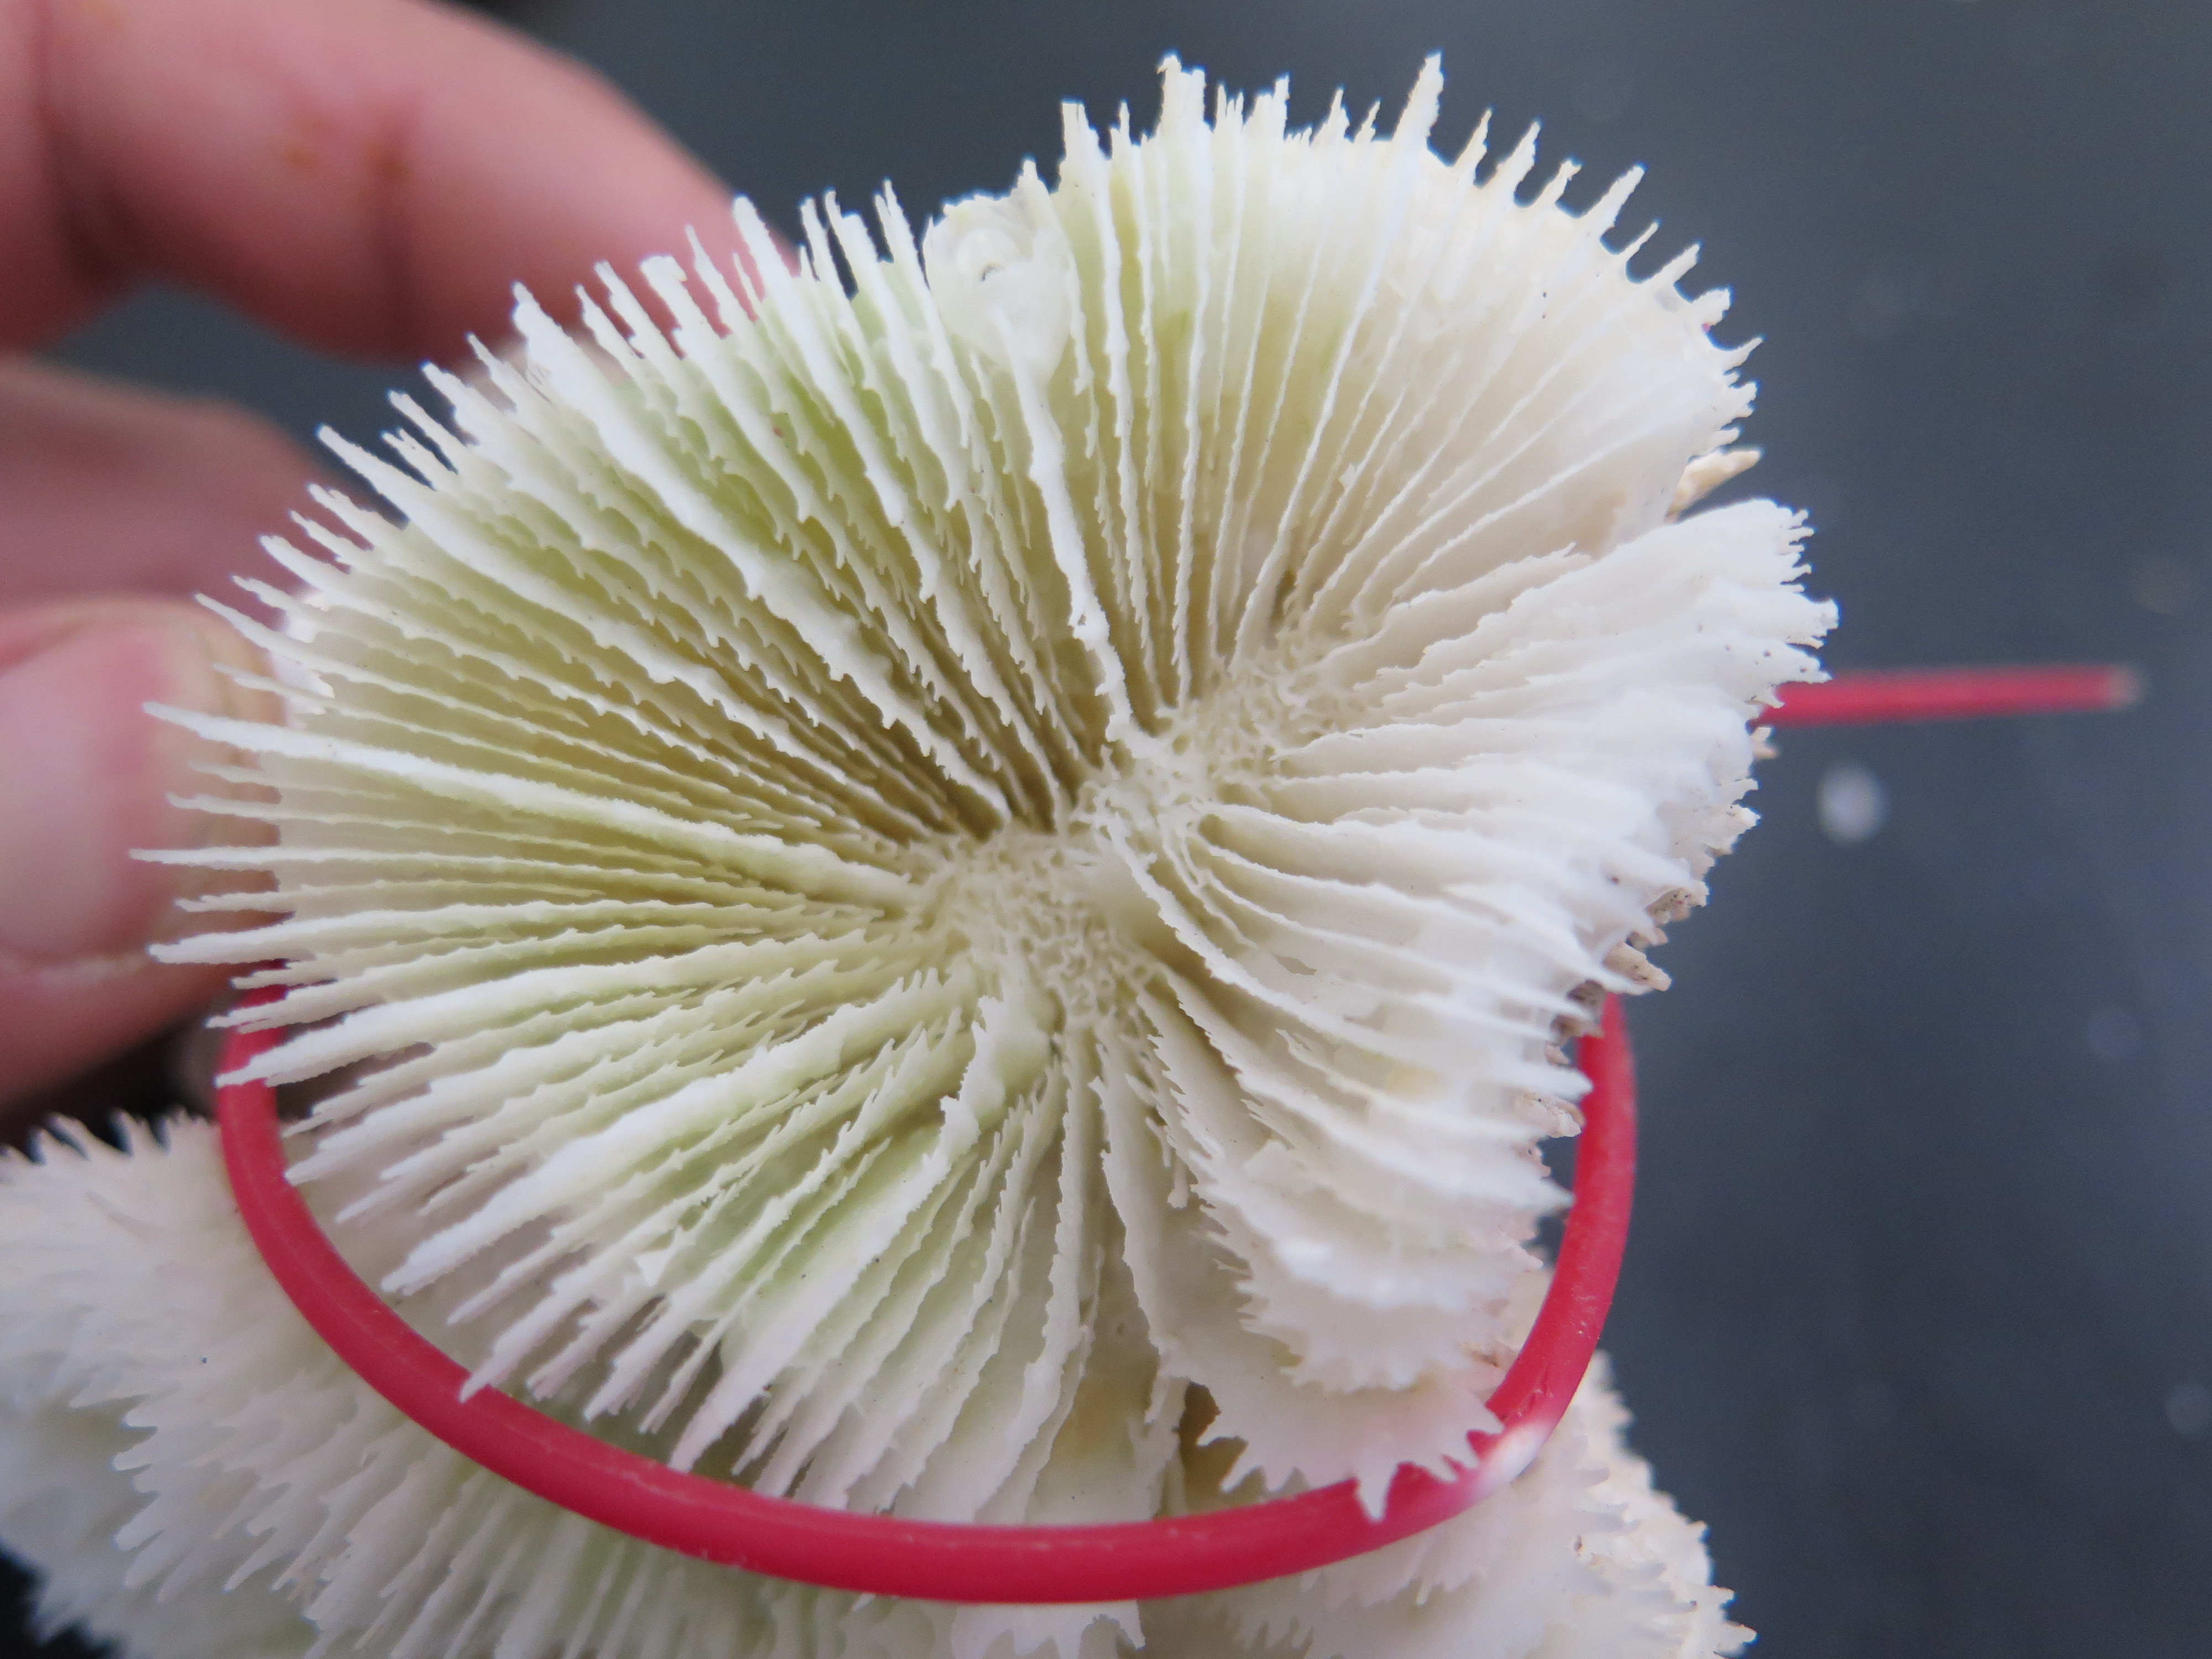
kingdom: Animalia
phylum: Cnidaria
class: Anthozoa
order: Scleractinia
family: Faviidae
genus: Mussa
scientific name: Mussa angulosa
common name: Spiny flower coral
